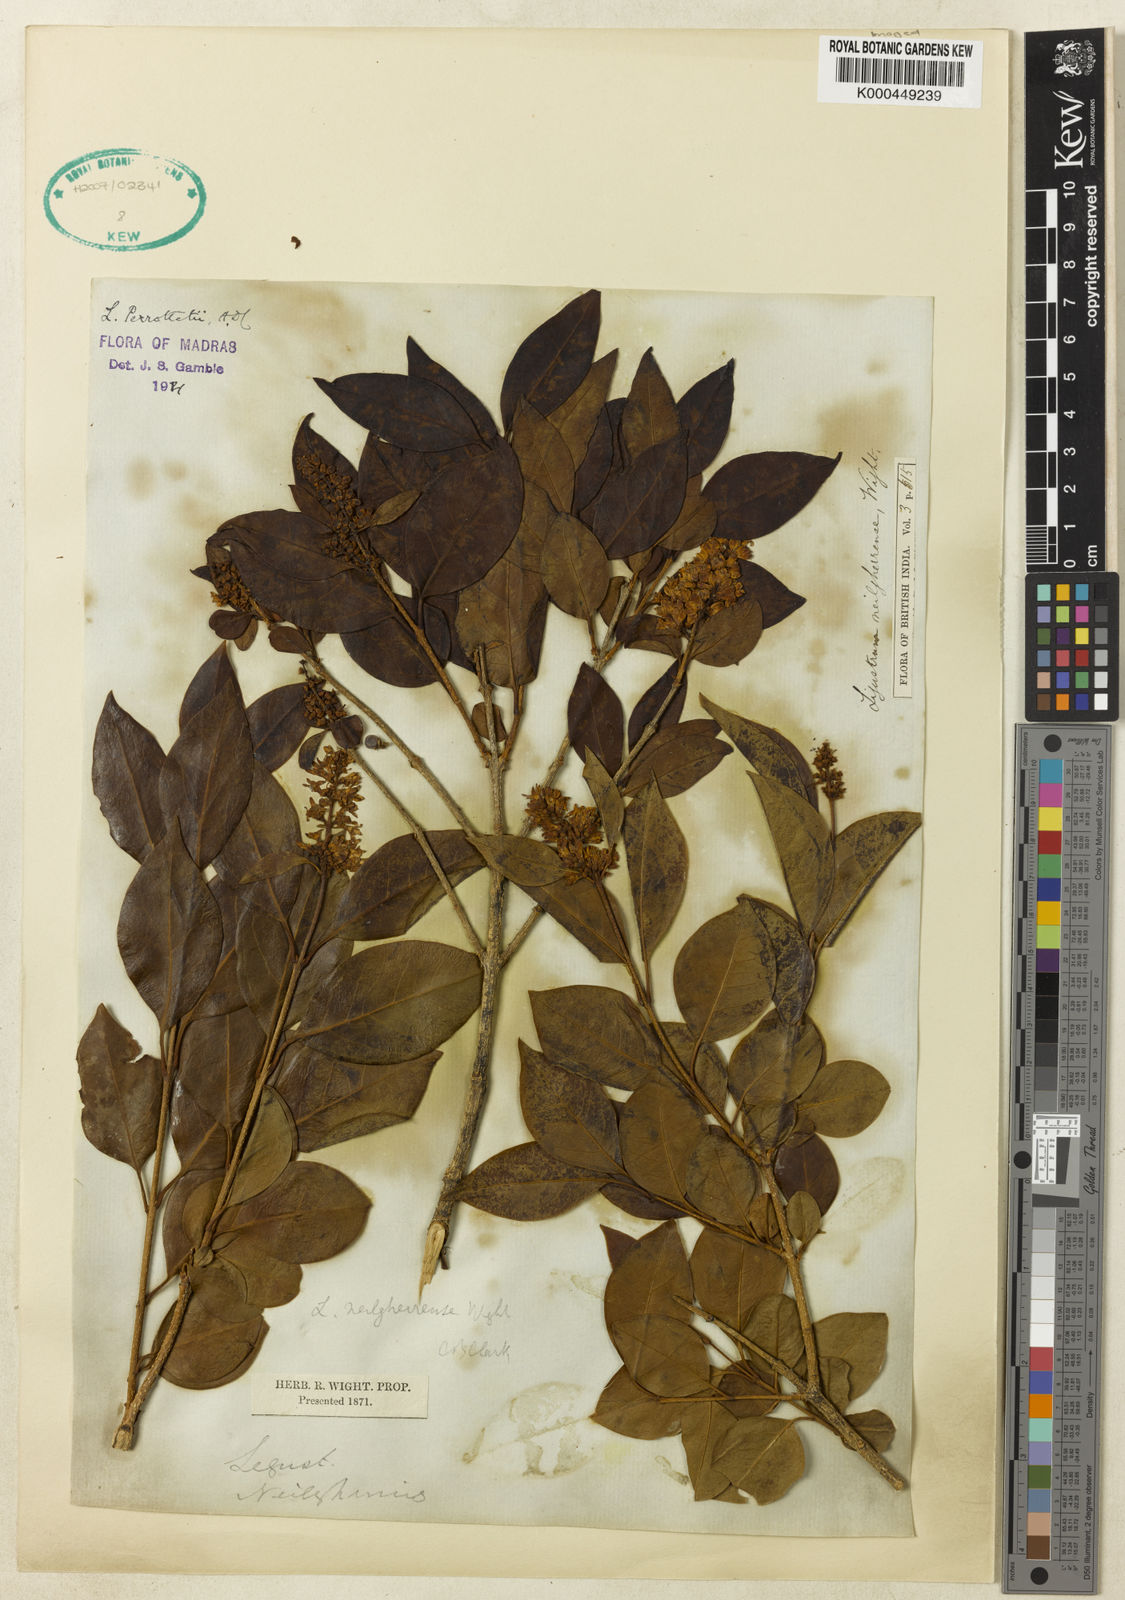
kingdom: Plantae
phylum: Tracheophyta
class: Magnoliopsida
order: Lamiales
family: Oleaceae
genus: Ligustrum
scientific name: Ligustrum robustum
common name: Tree privet
